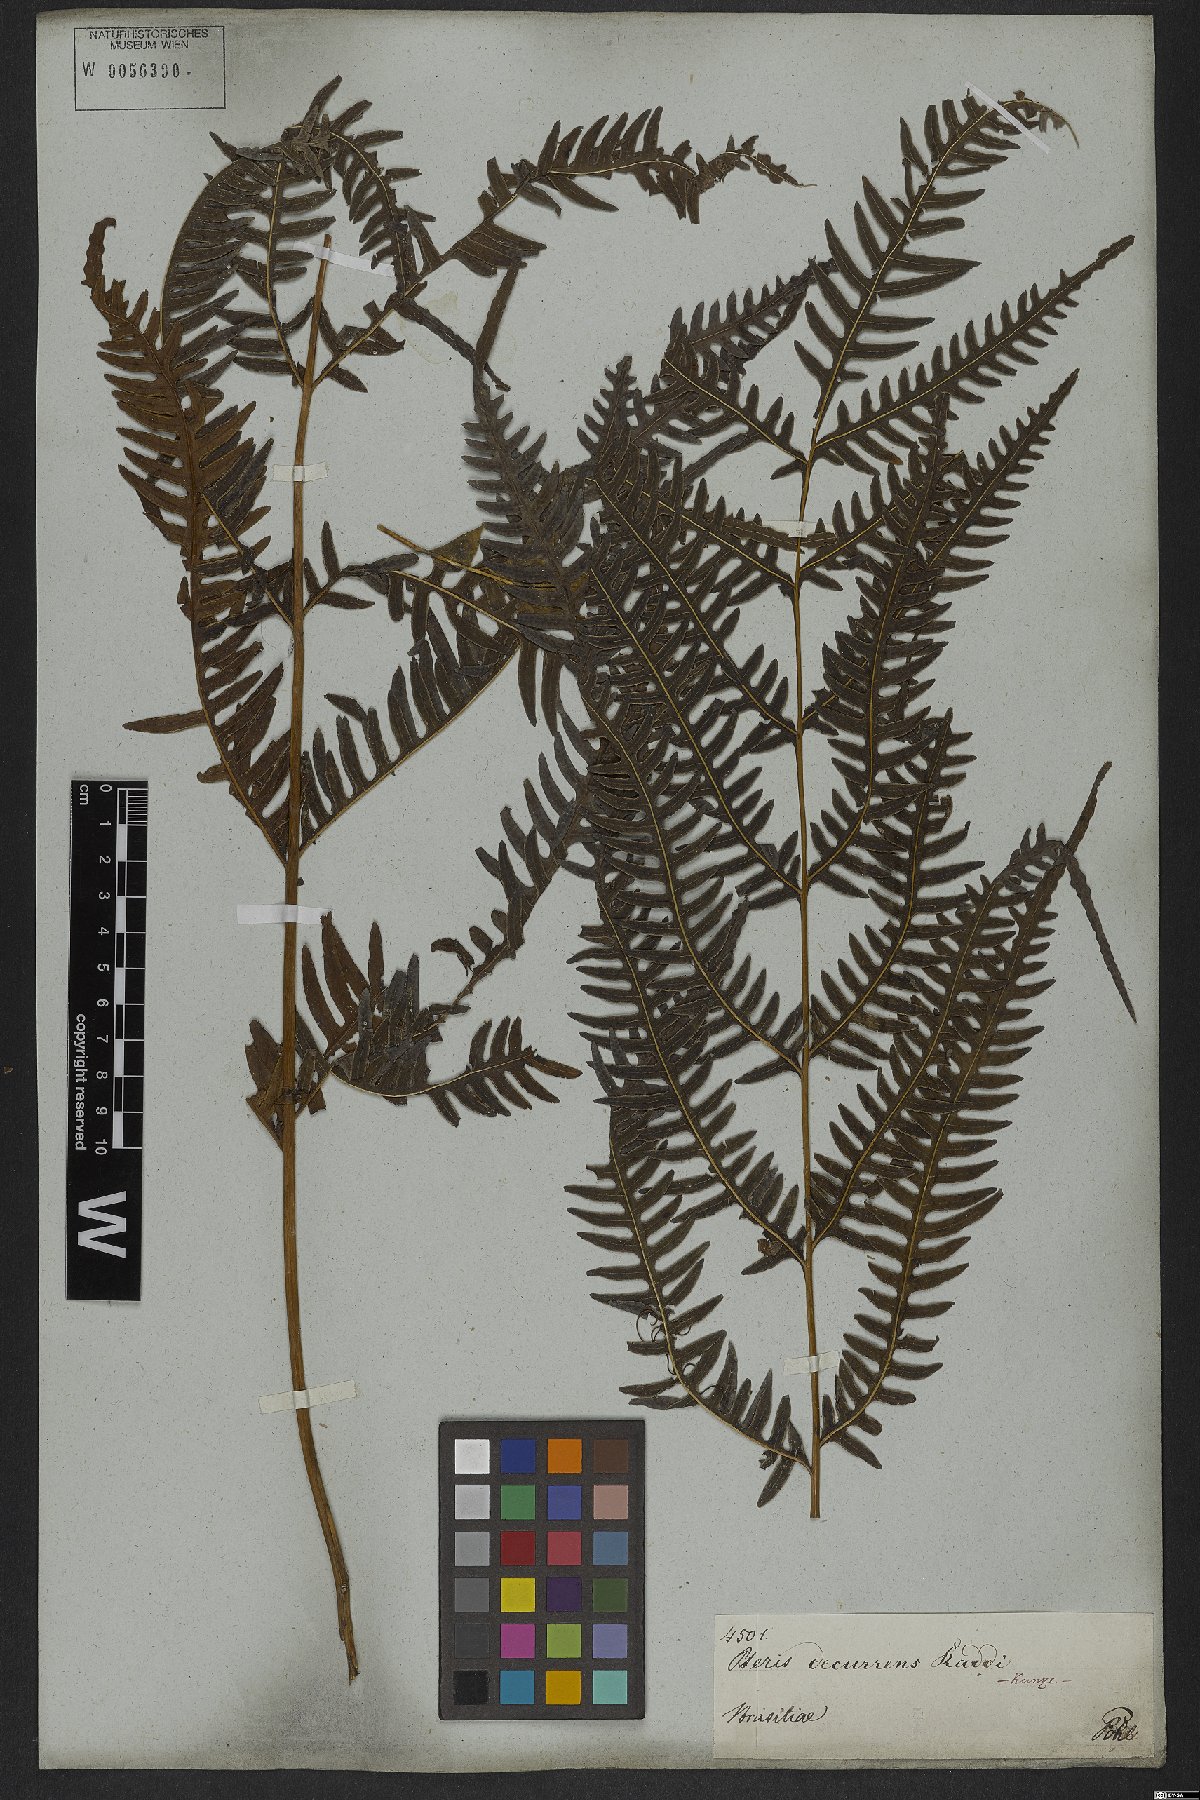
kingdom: Plantae
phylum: Tracheophyta
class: Polypodiopsida
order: Polypodiales
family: Pteridaceae
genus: Pteris
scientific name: Pteris decurrens
